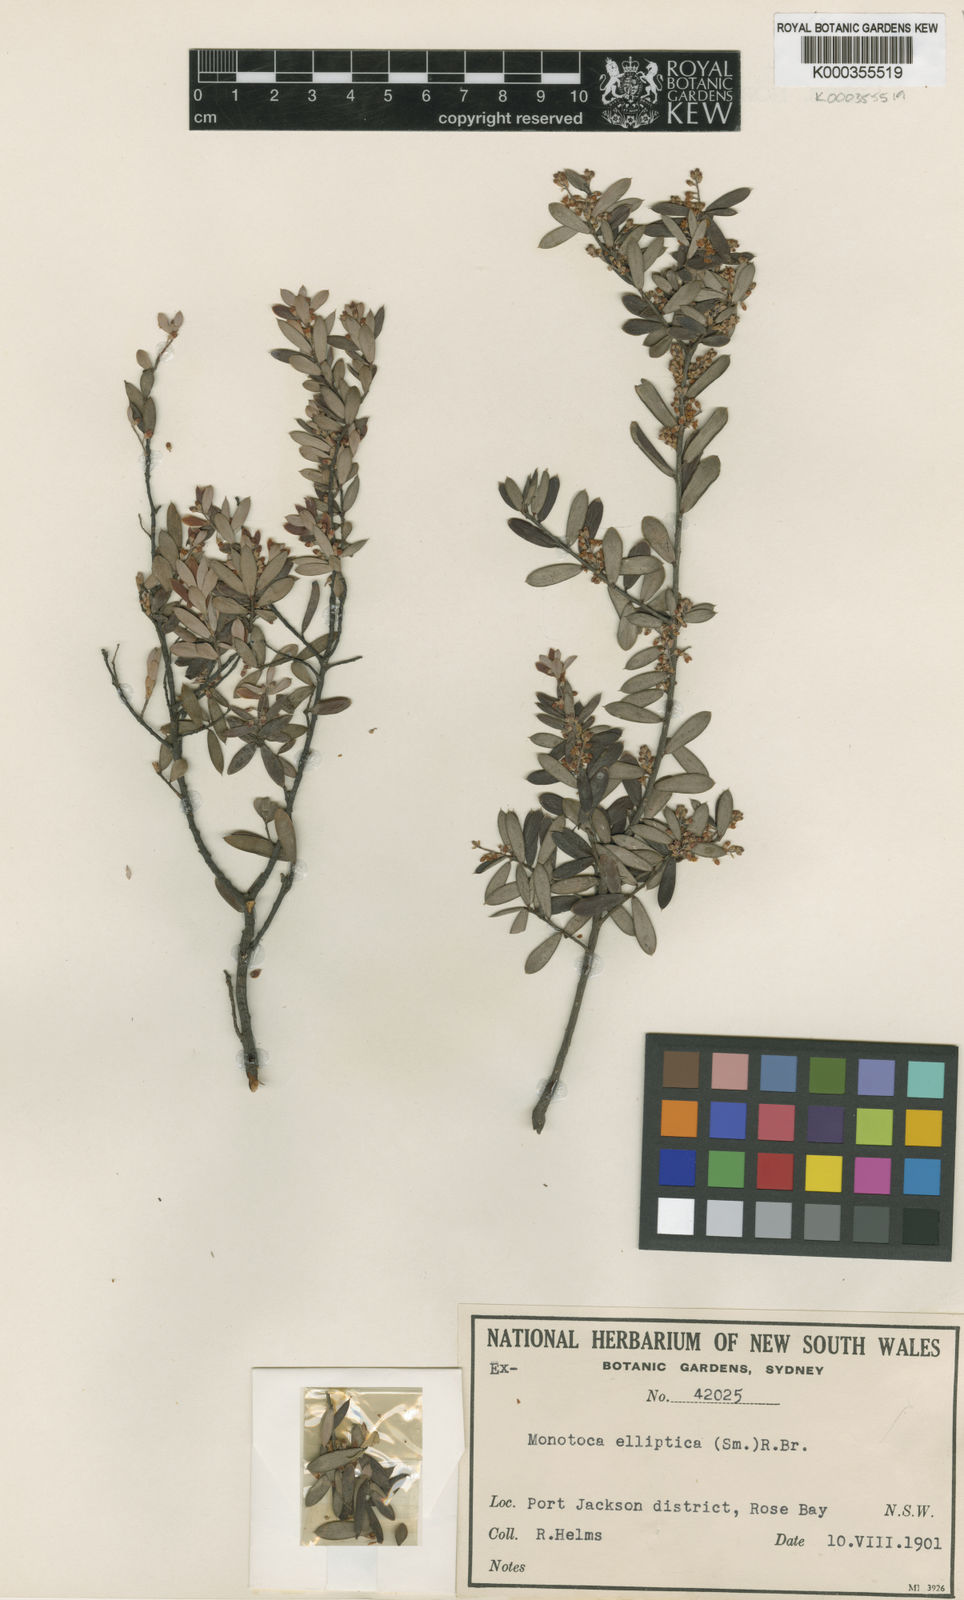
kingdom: Plantae
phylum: Tracheophyta
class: Magnoliopsida
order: Ericales
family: Ericaceae
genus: Monotoca
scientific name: Monotoca elliptica
